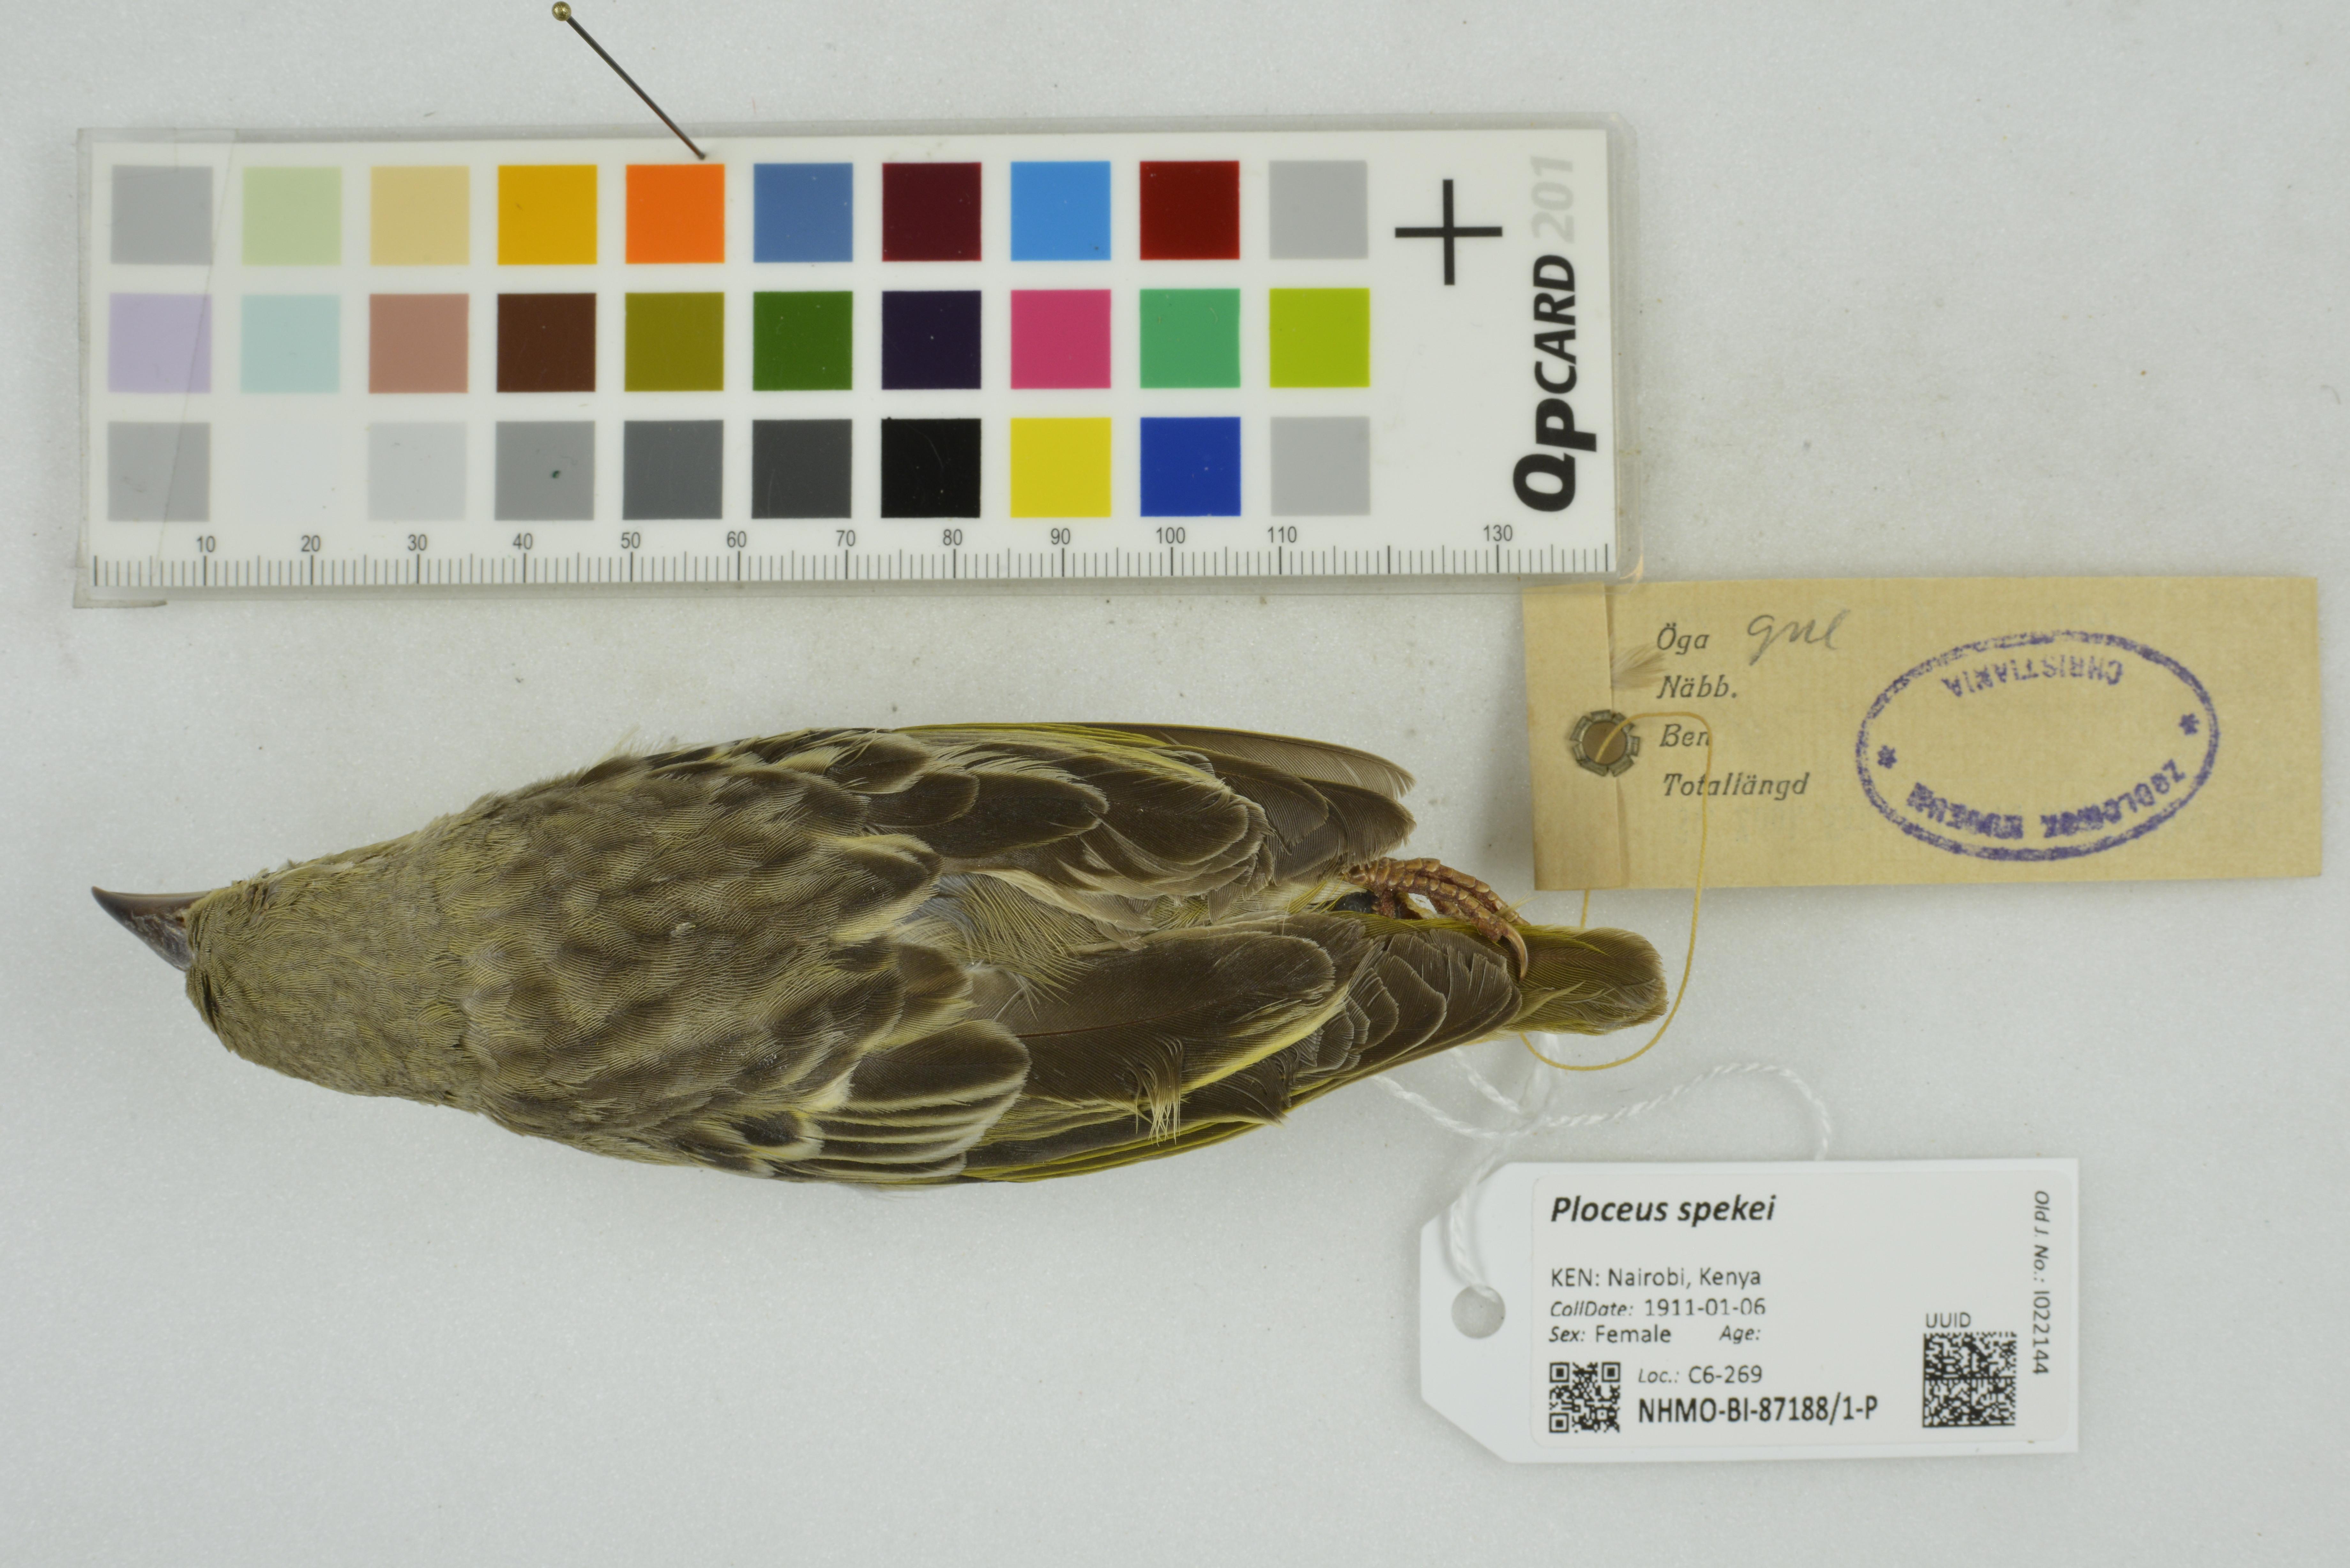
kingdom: Animalia
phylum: Chordata
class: Aves
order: Passeriformes
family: Ploceidae
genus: Ploceus
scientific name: Ploceus spekei
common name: Speke's weaver
